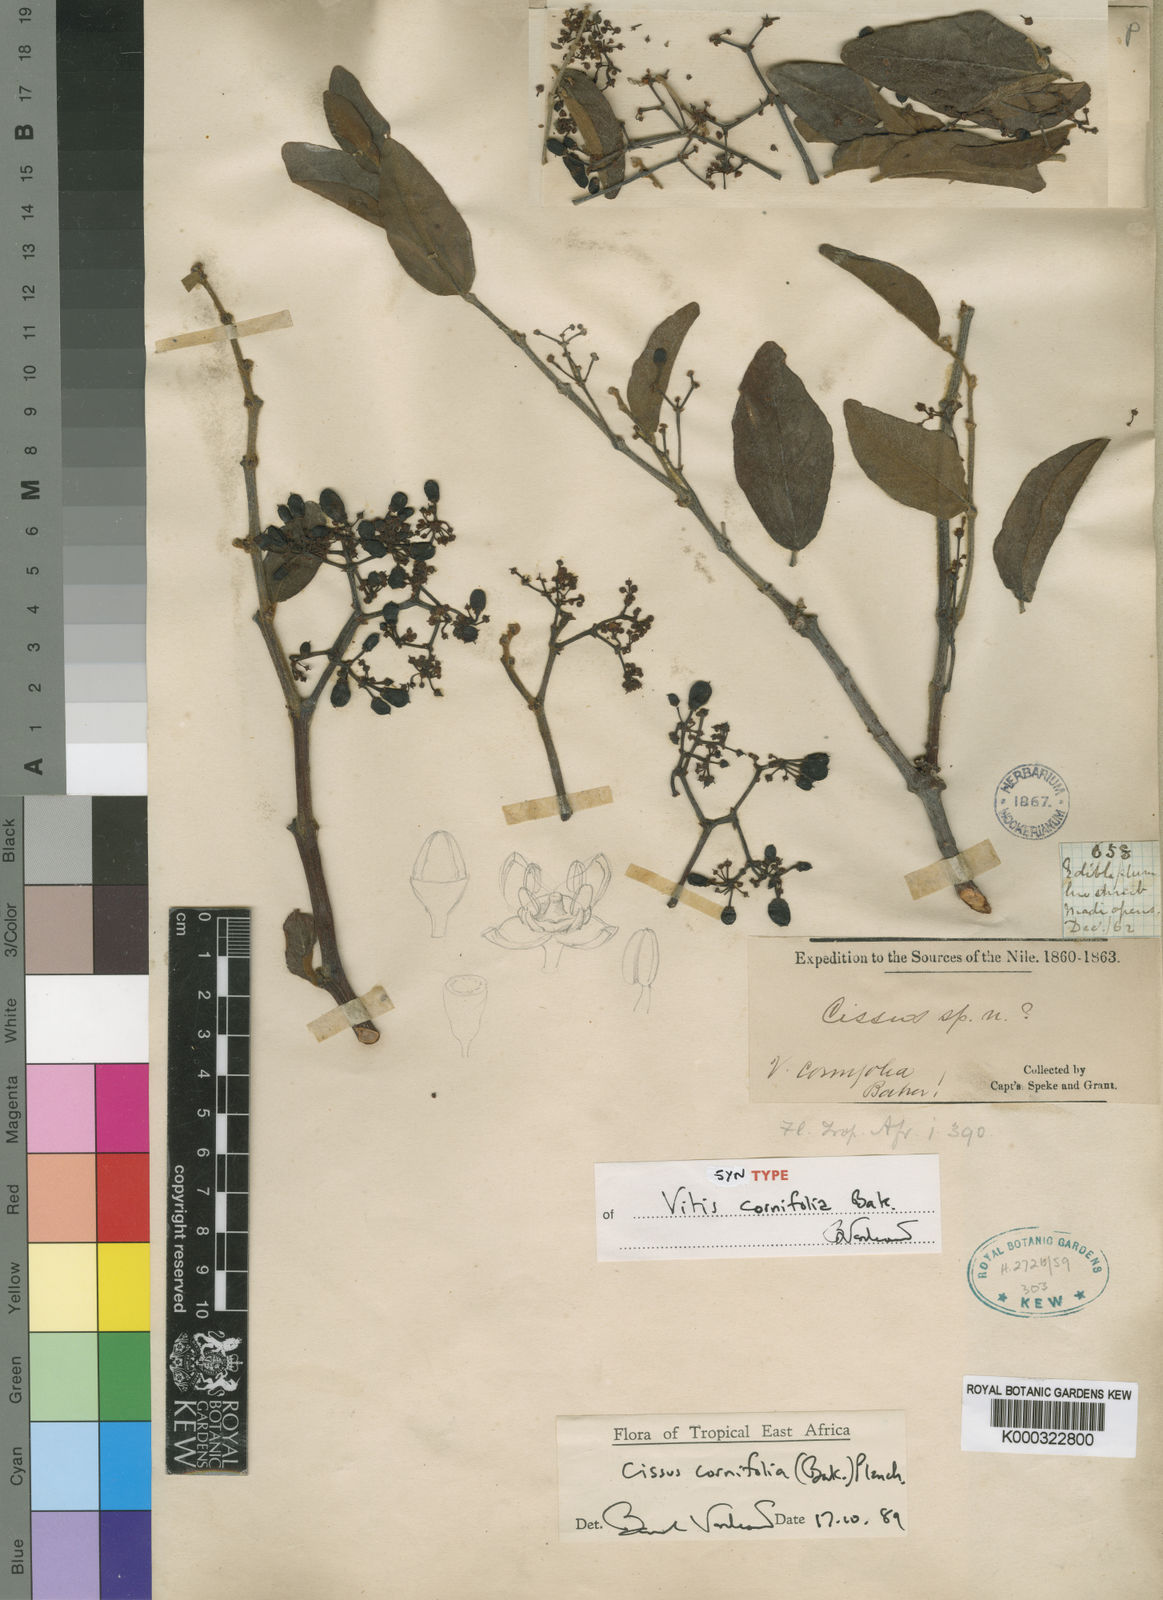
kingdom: Plantae
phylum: Tracheophyta
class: Magnoliopsida
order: Vitales
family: Vitaceae
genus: Cissus
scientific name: Cissus cornifolia
